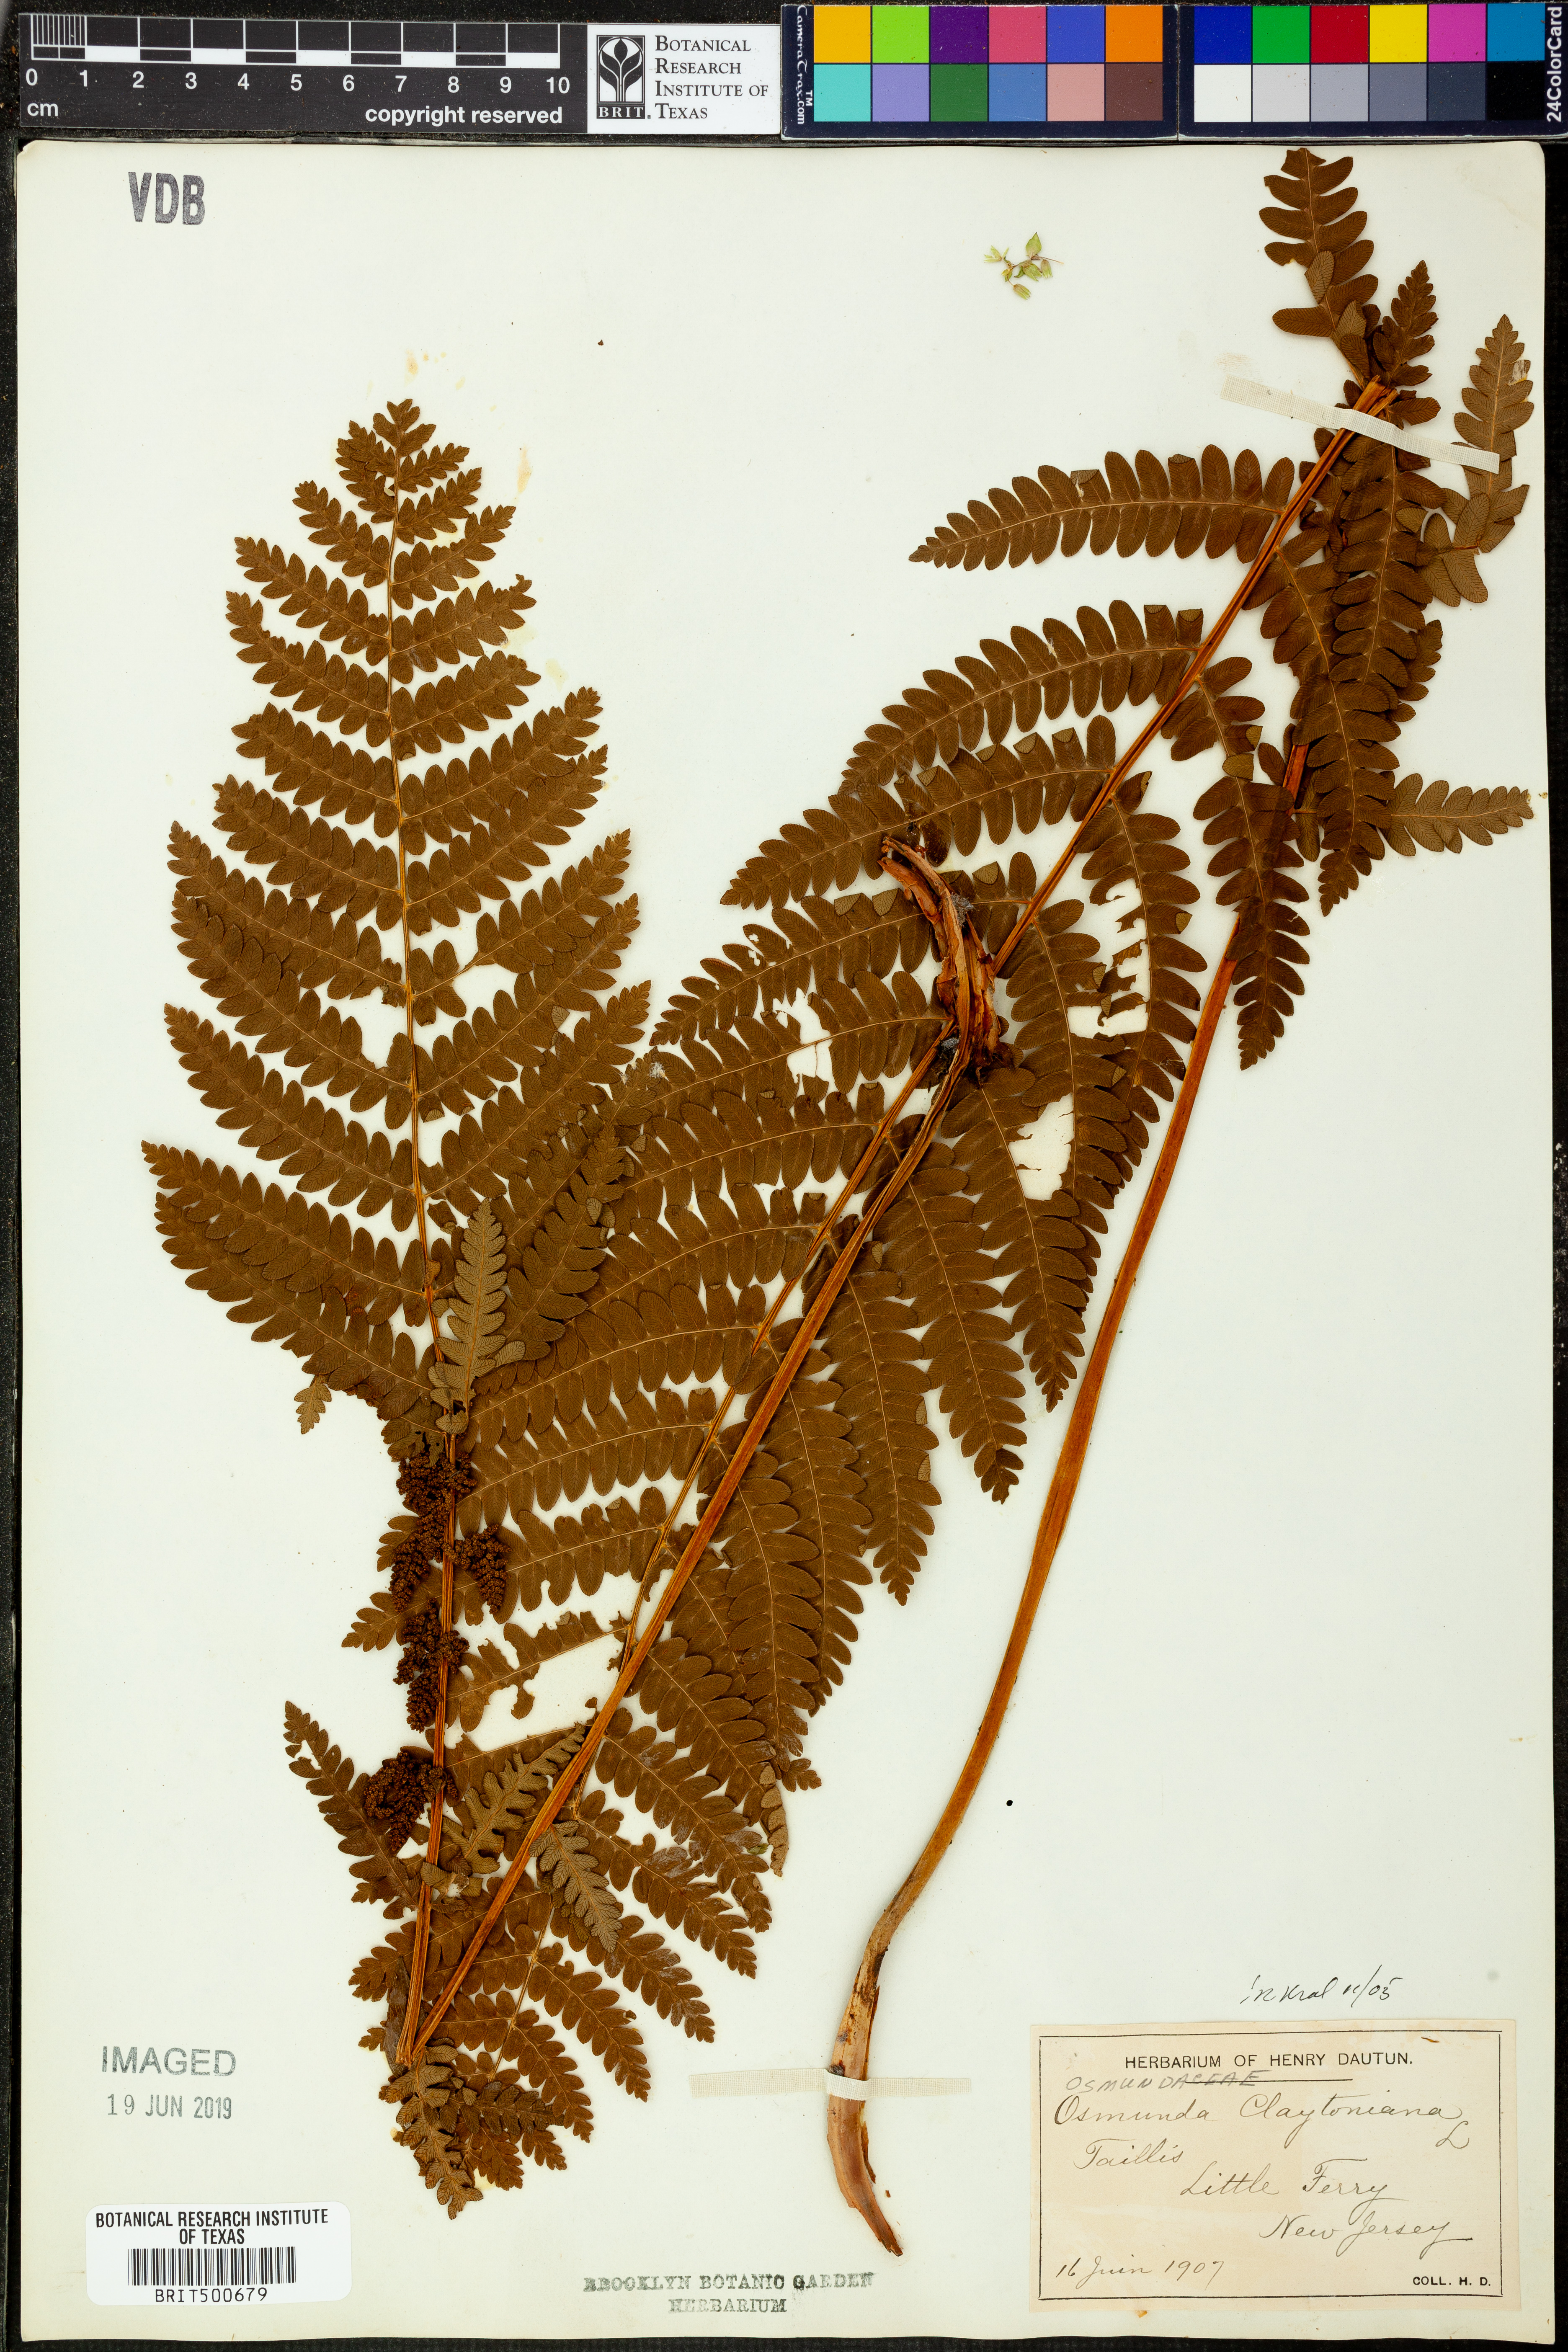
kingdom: Plantae
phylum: Tracheophyta
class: Polypodiopsida
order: Osmundales
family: Osmundaceae
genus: Claytosmunda
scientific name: Claytosmunda claytoniana
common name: Clayton's fern
